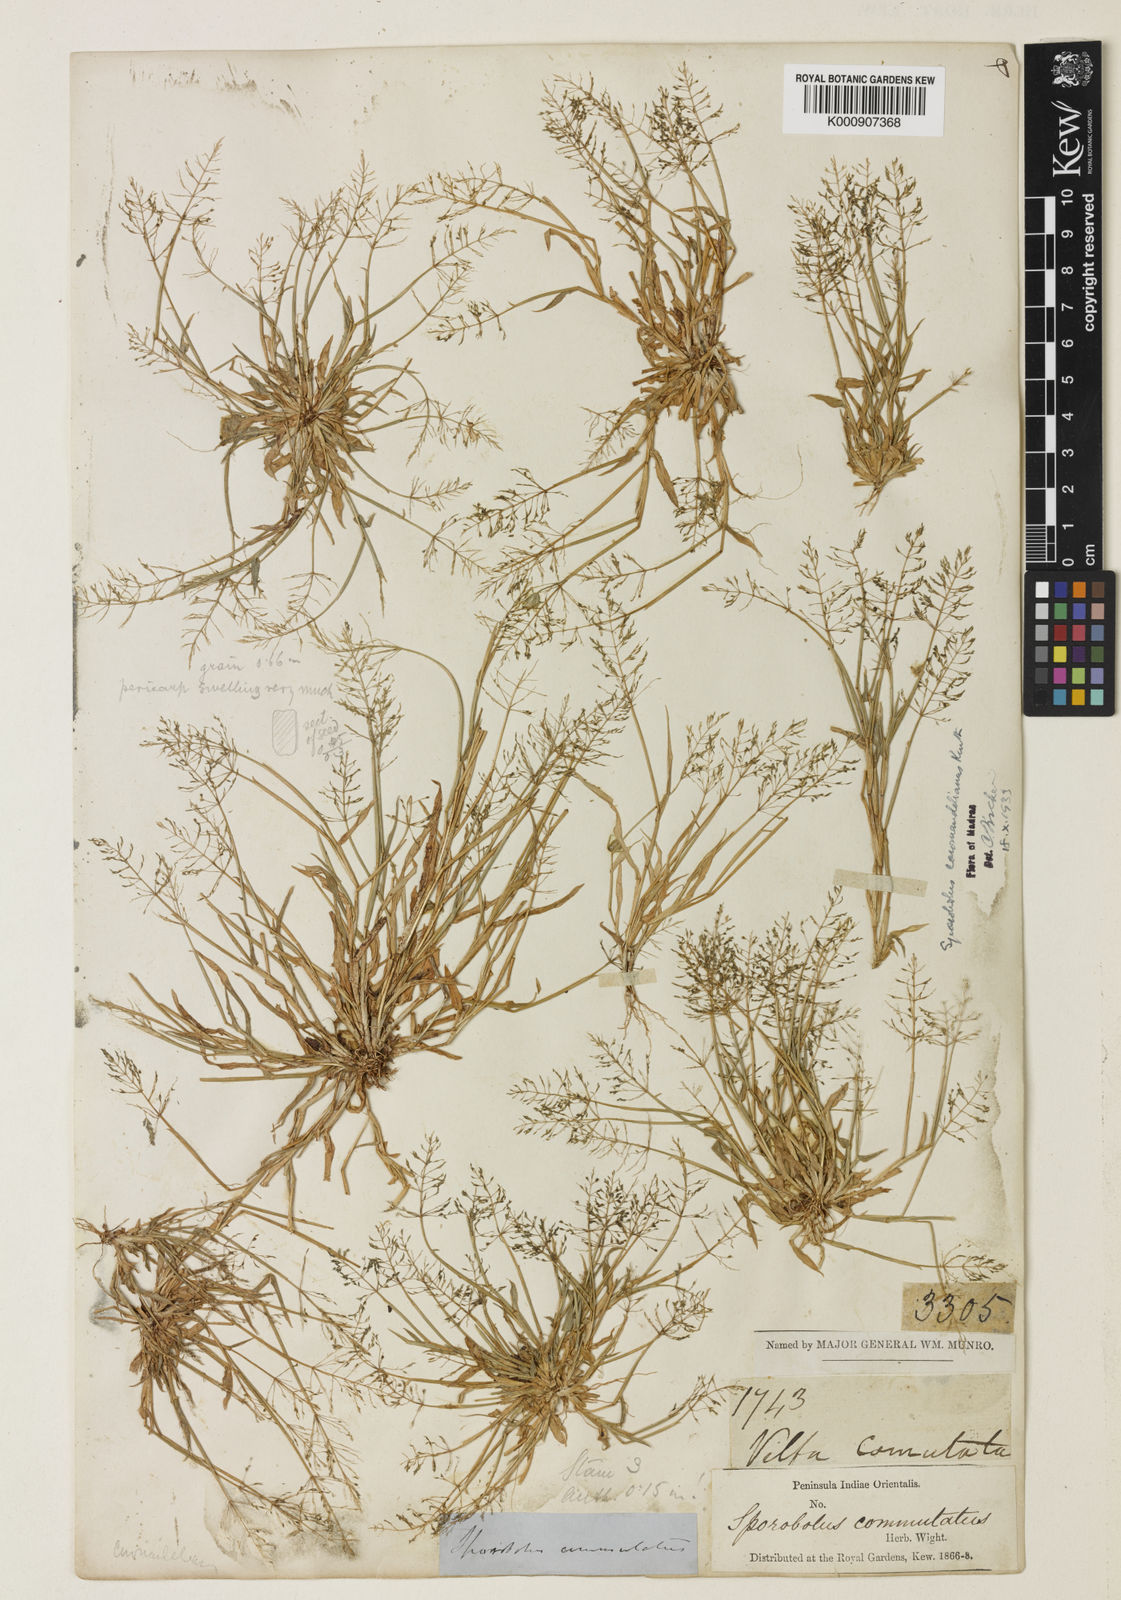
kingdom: Plantae
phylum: Tracheophyta
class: Liliopsida
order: Poales
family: Poaceae
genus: Sporobolus
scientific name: Sporobolus coromandelianus
